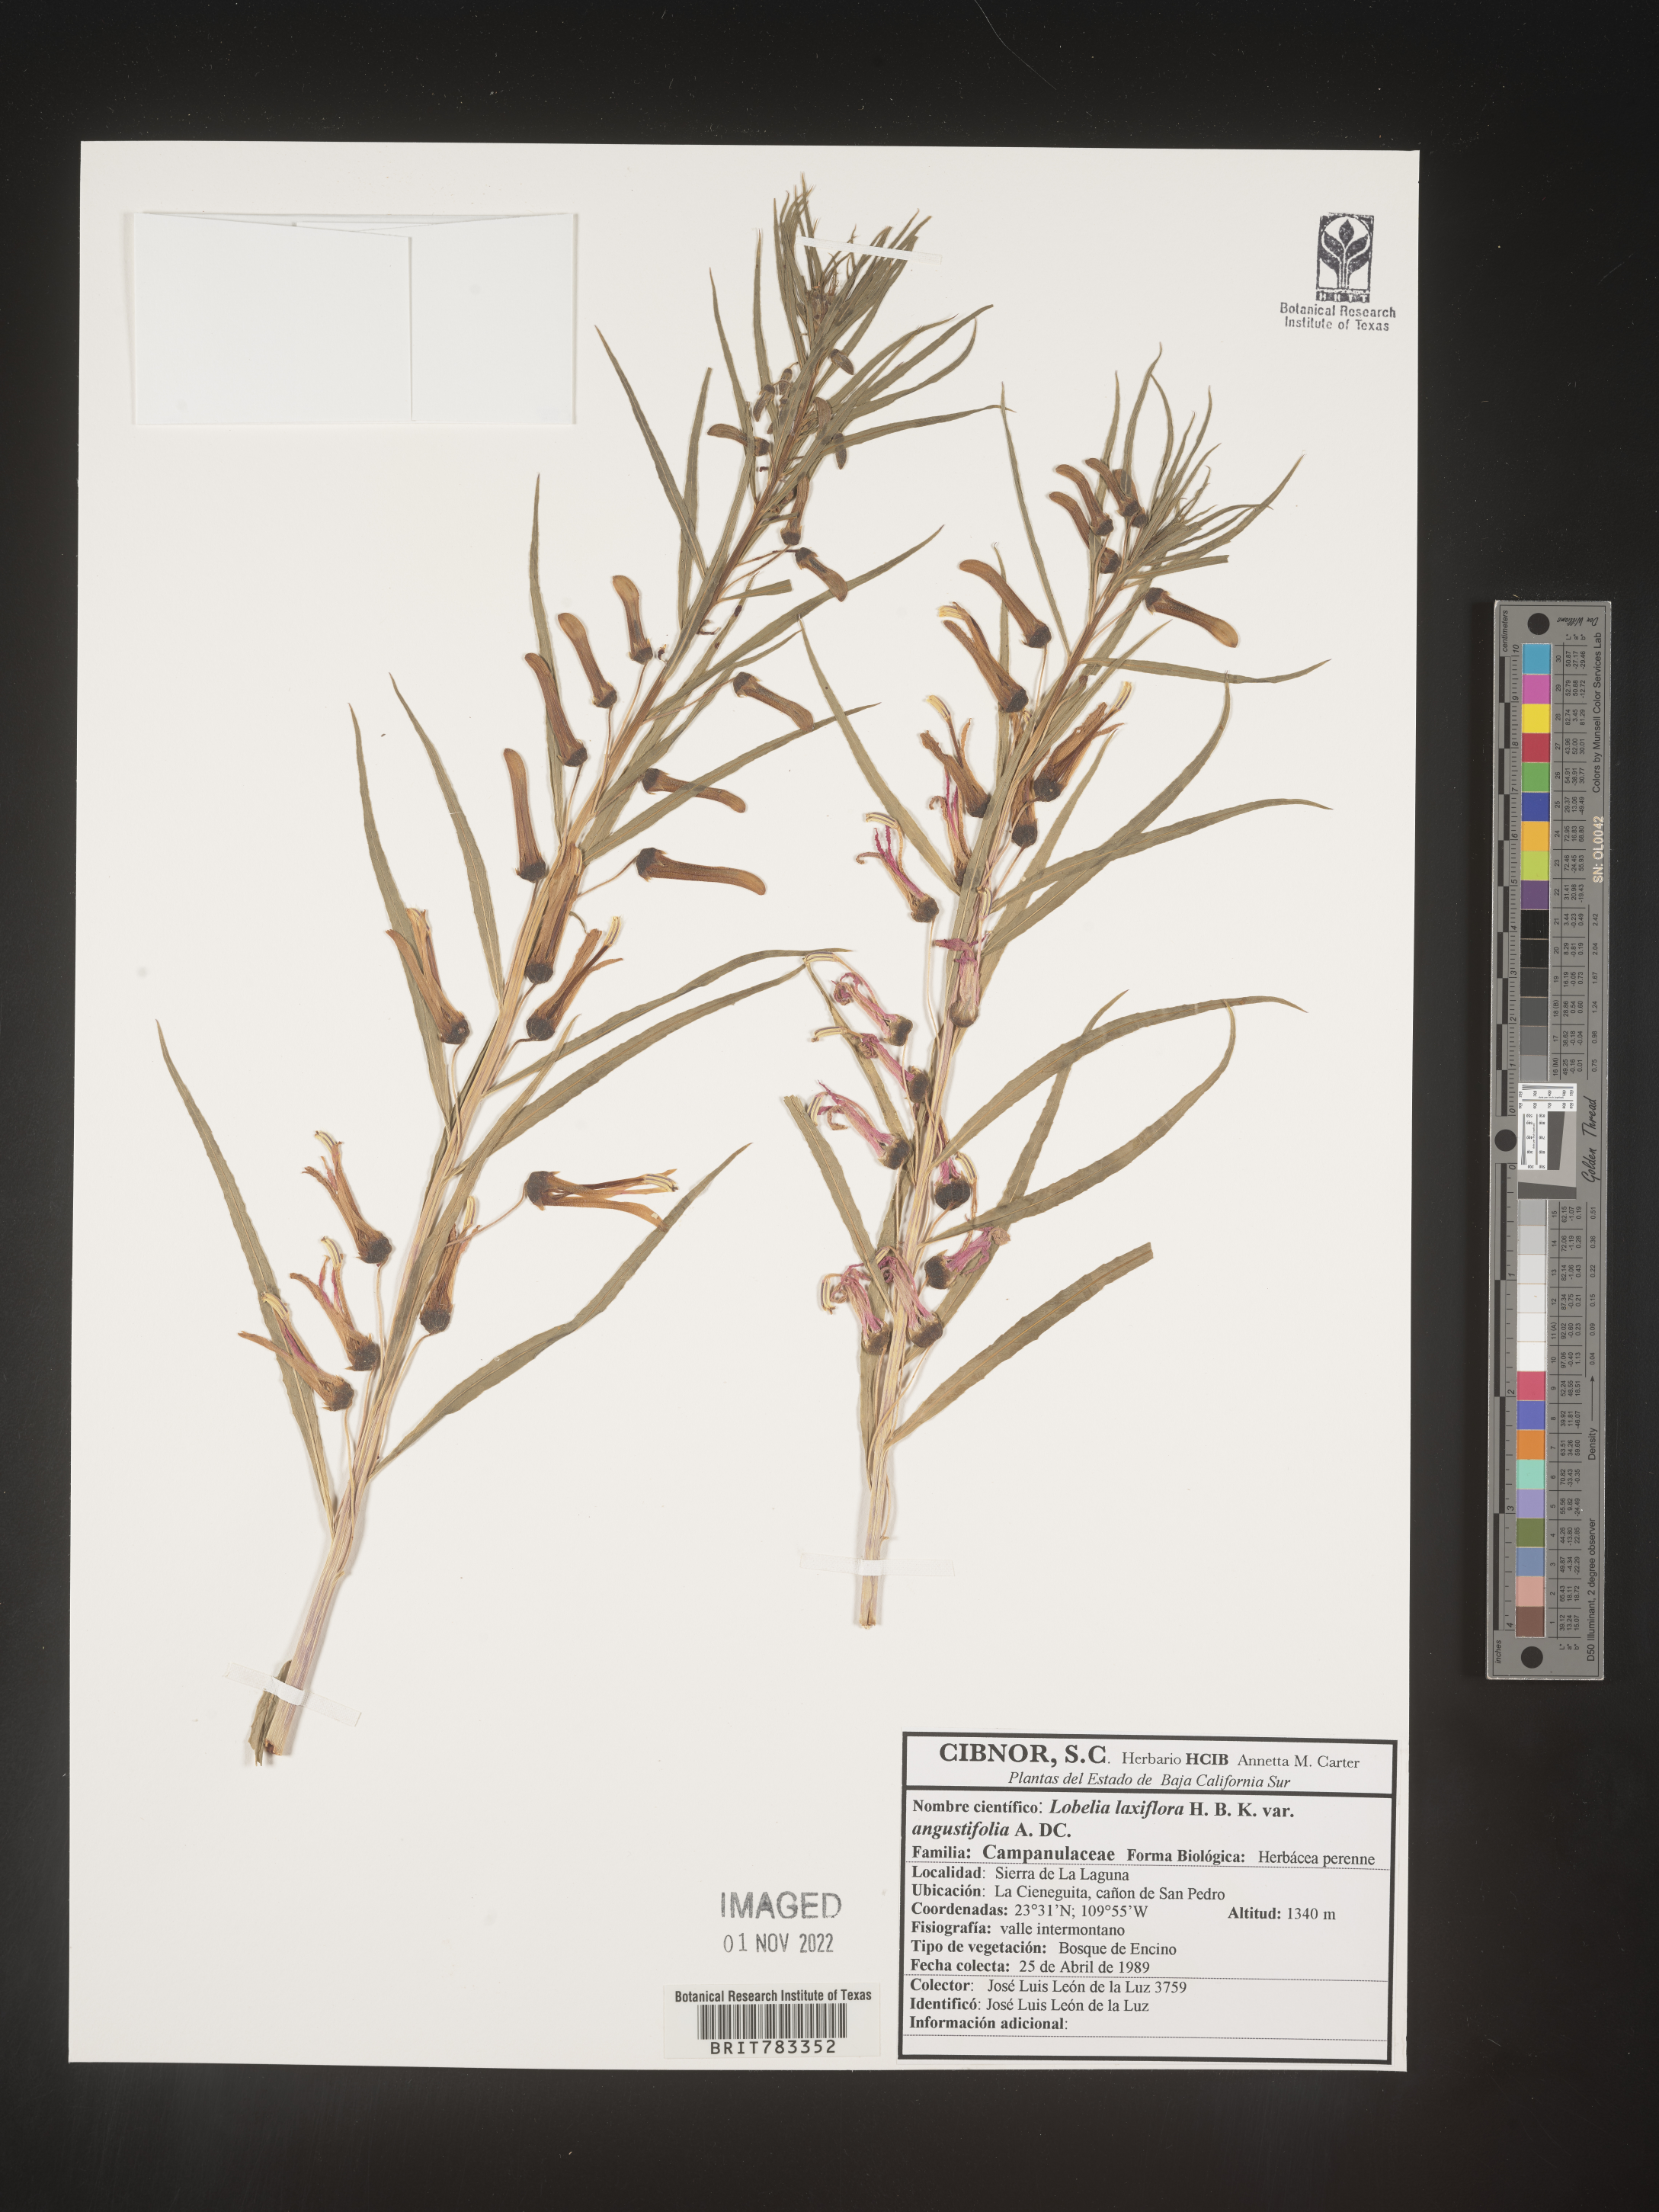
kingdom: Plantae
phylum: Tracheophyta
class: Magnoliopsida
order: Asterales
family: Campanulaceae
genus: Lobelia
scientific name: Lobelia
